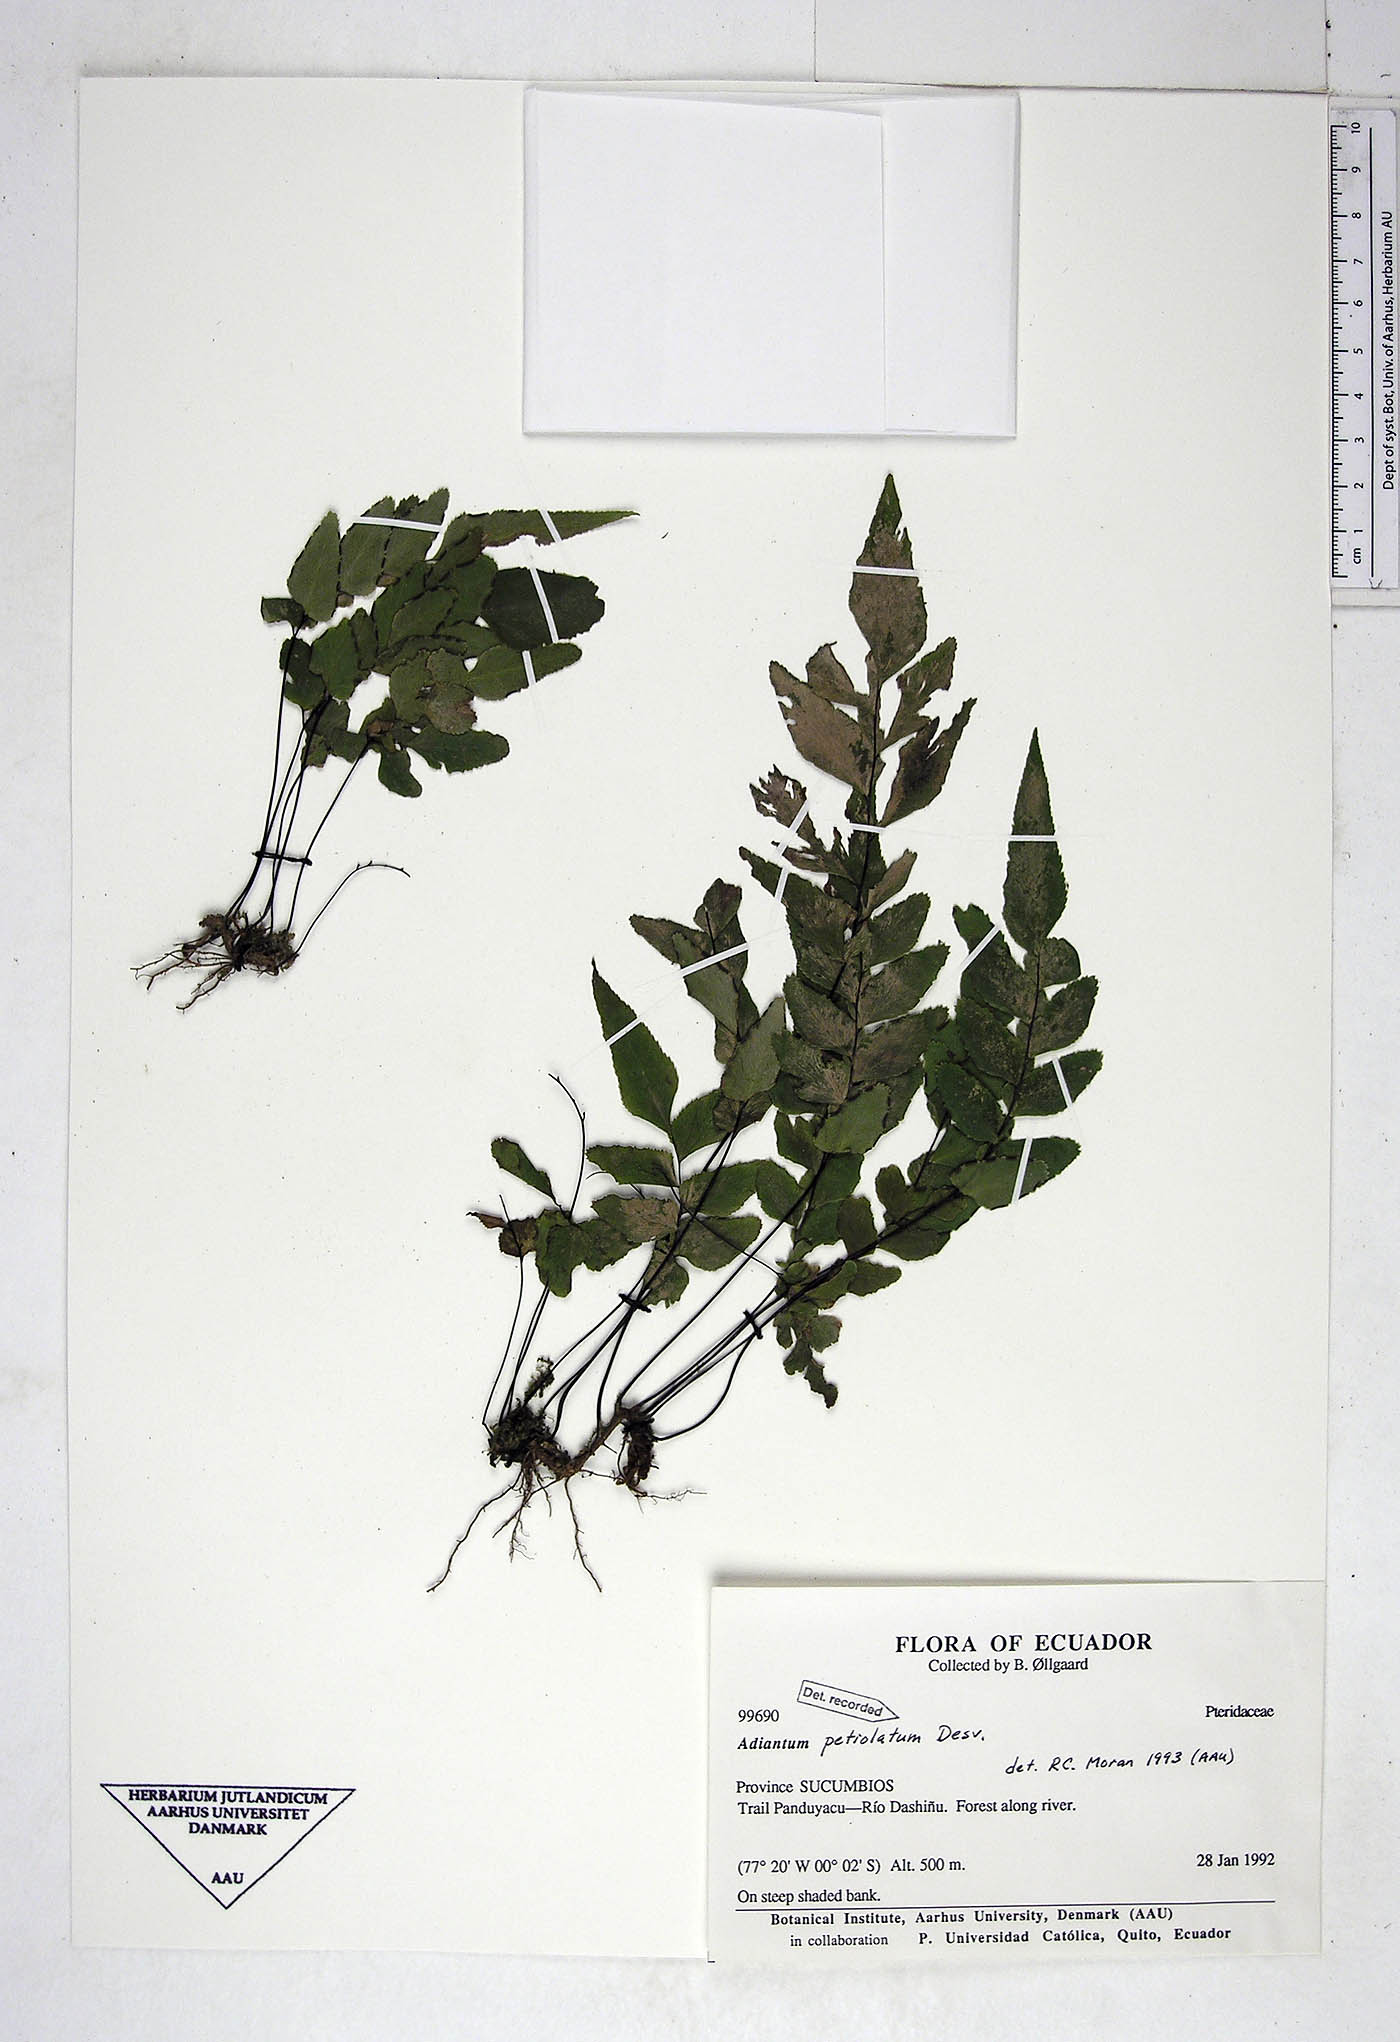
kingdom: Plantae
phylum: Tracheophyta
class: Polypodiopsida
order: Polypodiales
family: Pteridaceae
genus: Adiantum
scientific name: Adiantum petiolatum
